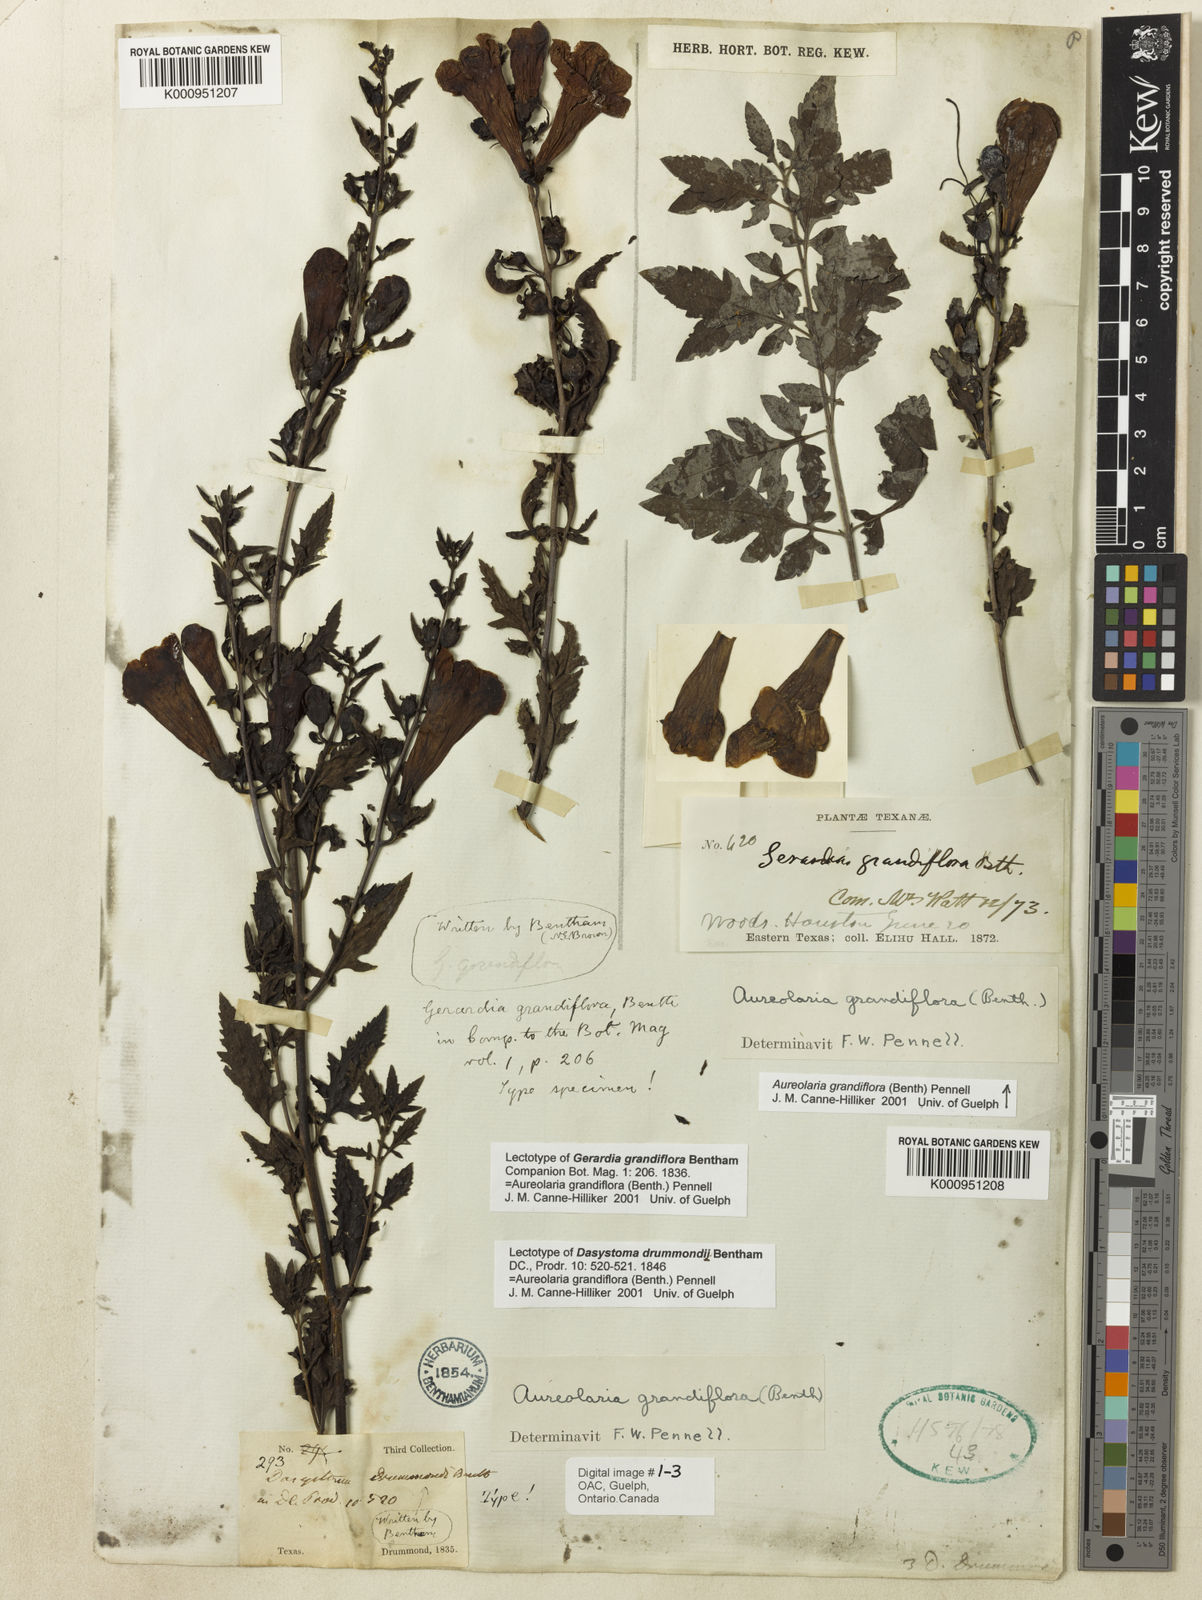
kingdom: Plantae
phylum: Tracheophyta
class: Magnoliopsida
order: Lamiales
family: Orobanchaceae
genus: Aureolaria
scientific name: Aureolaria grandiflora
